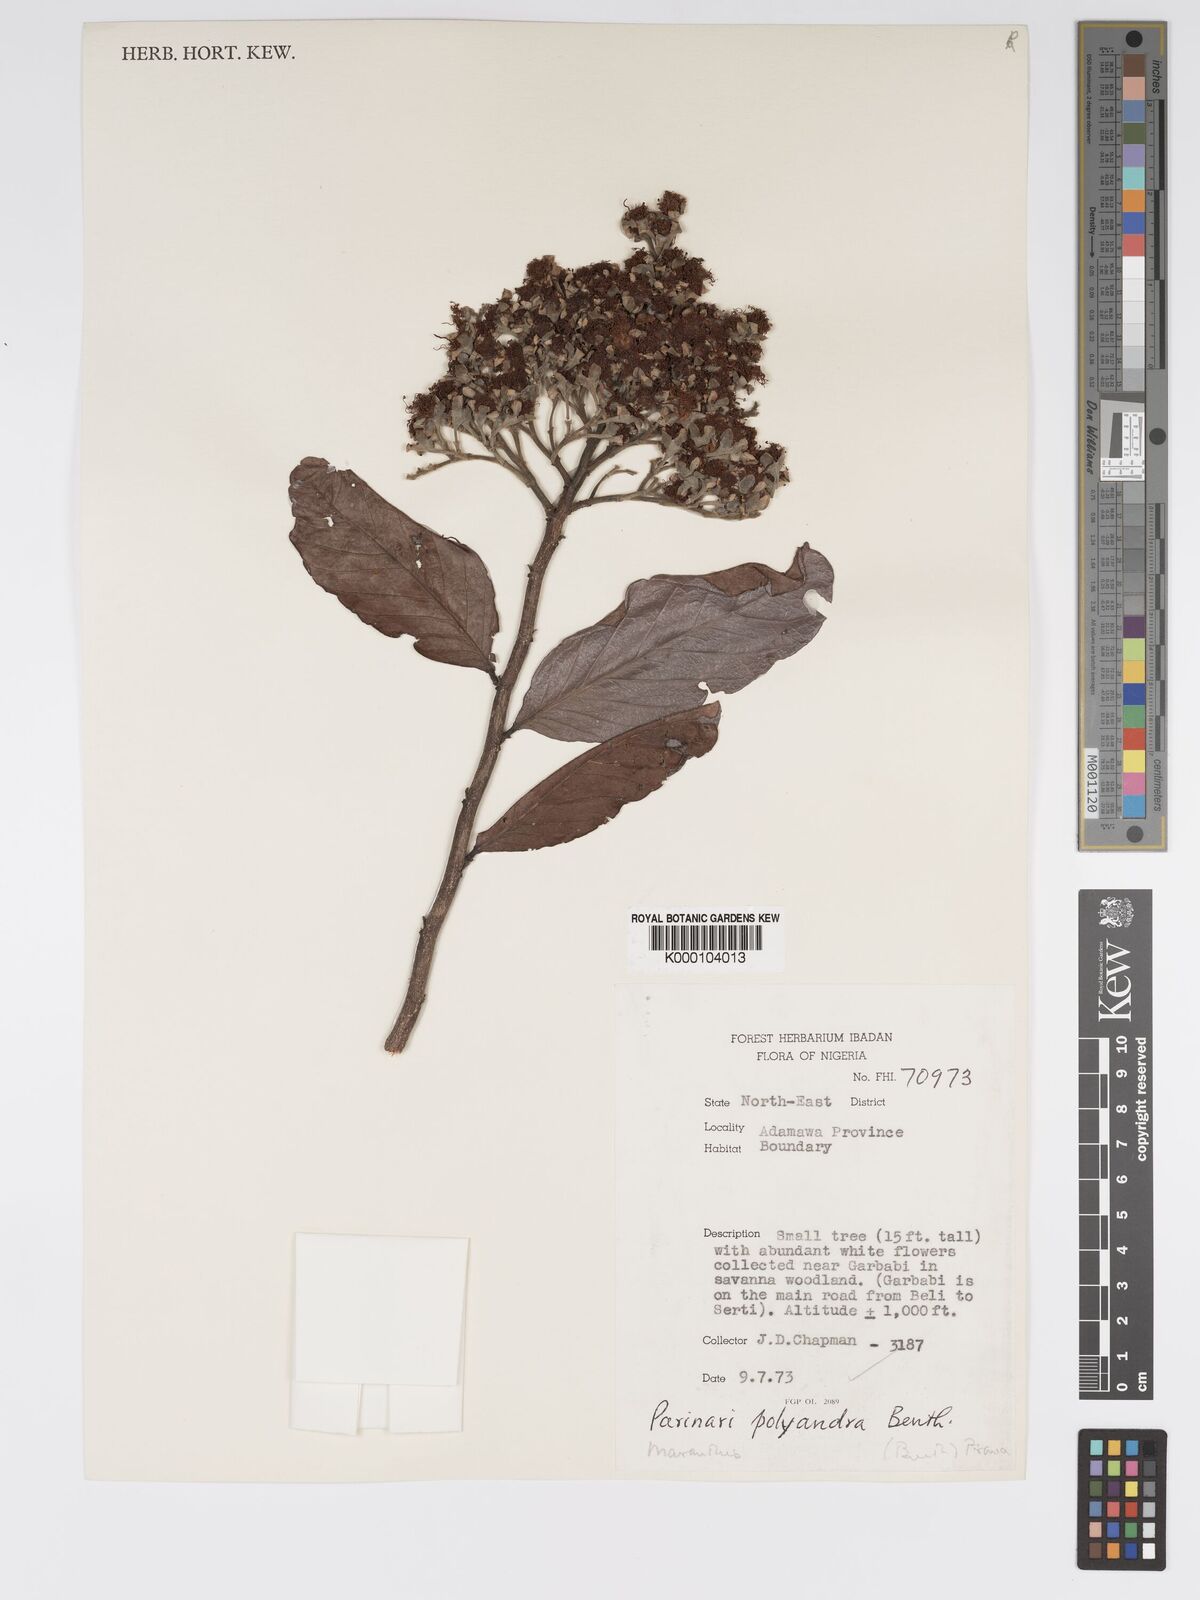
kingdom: Plantae
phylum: Tracheophyta
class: Magnoliopsida
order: Malpighiales
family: Chrysobalanaceae
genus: Maranthes
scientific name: Maranthes polyandra
